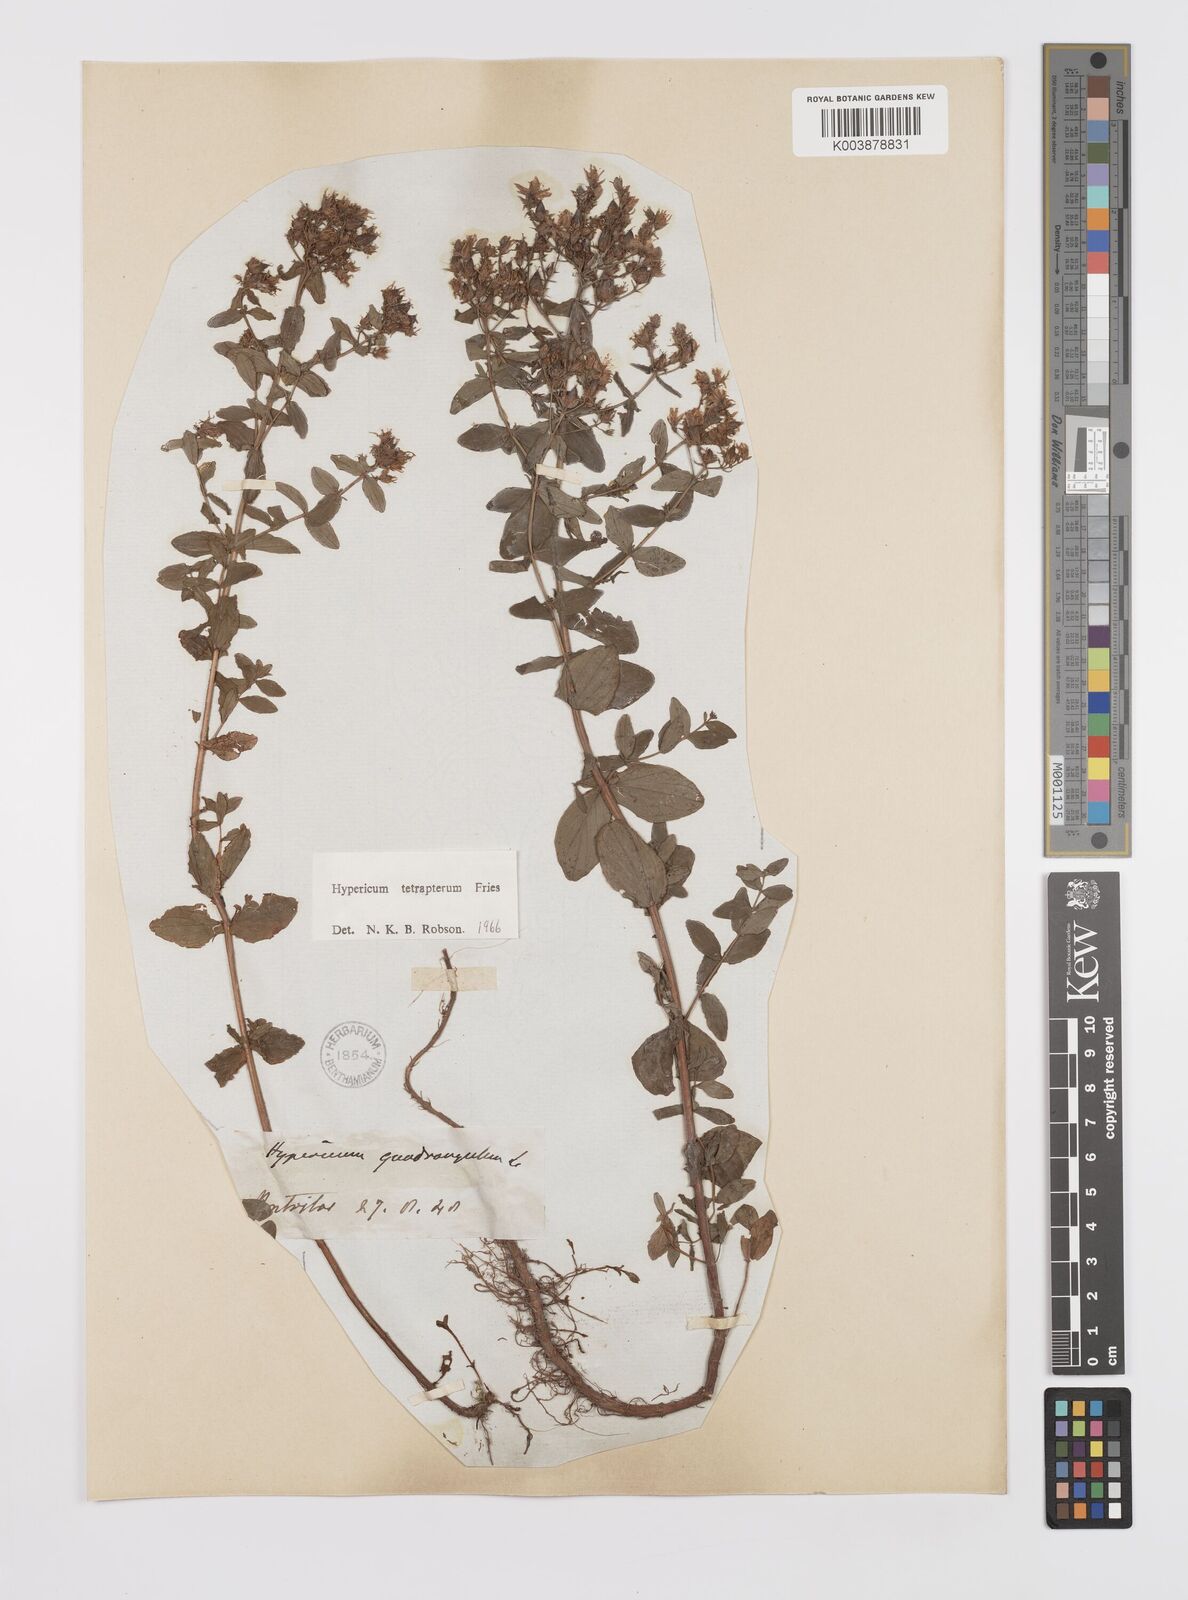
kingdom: Plantae
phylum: Tracheophyta
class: Magnoliopsida
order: Malpighiales
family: Hypericaceae
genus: Hypericum
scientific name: Hypericum tetrapterum
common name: Square-stalked st. john's-wort
